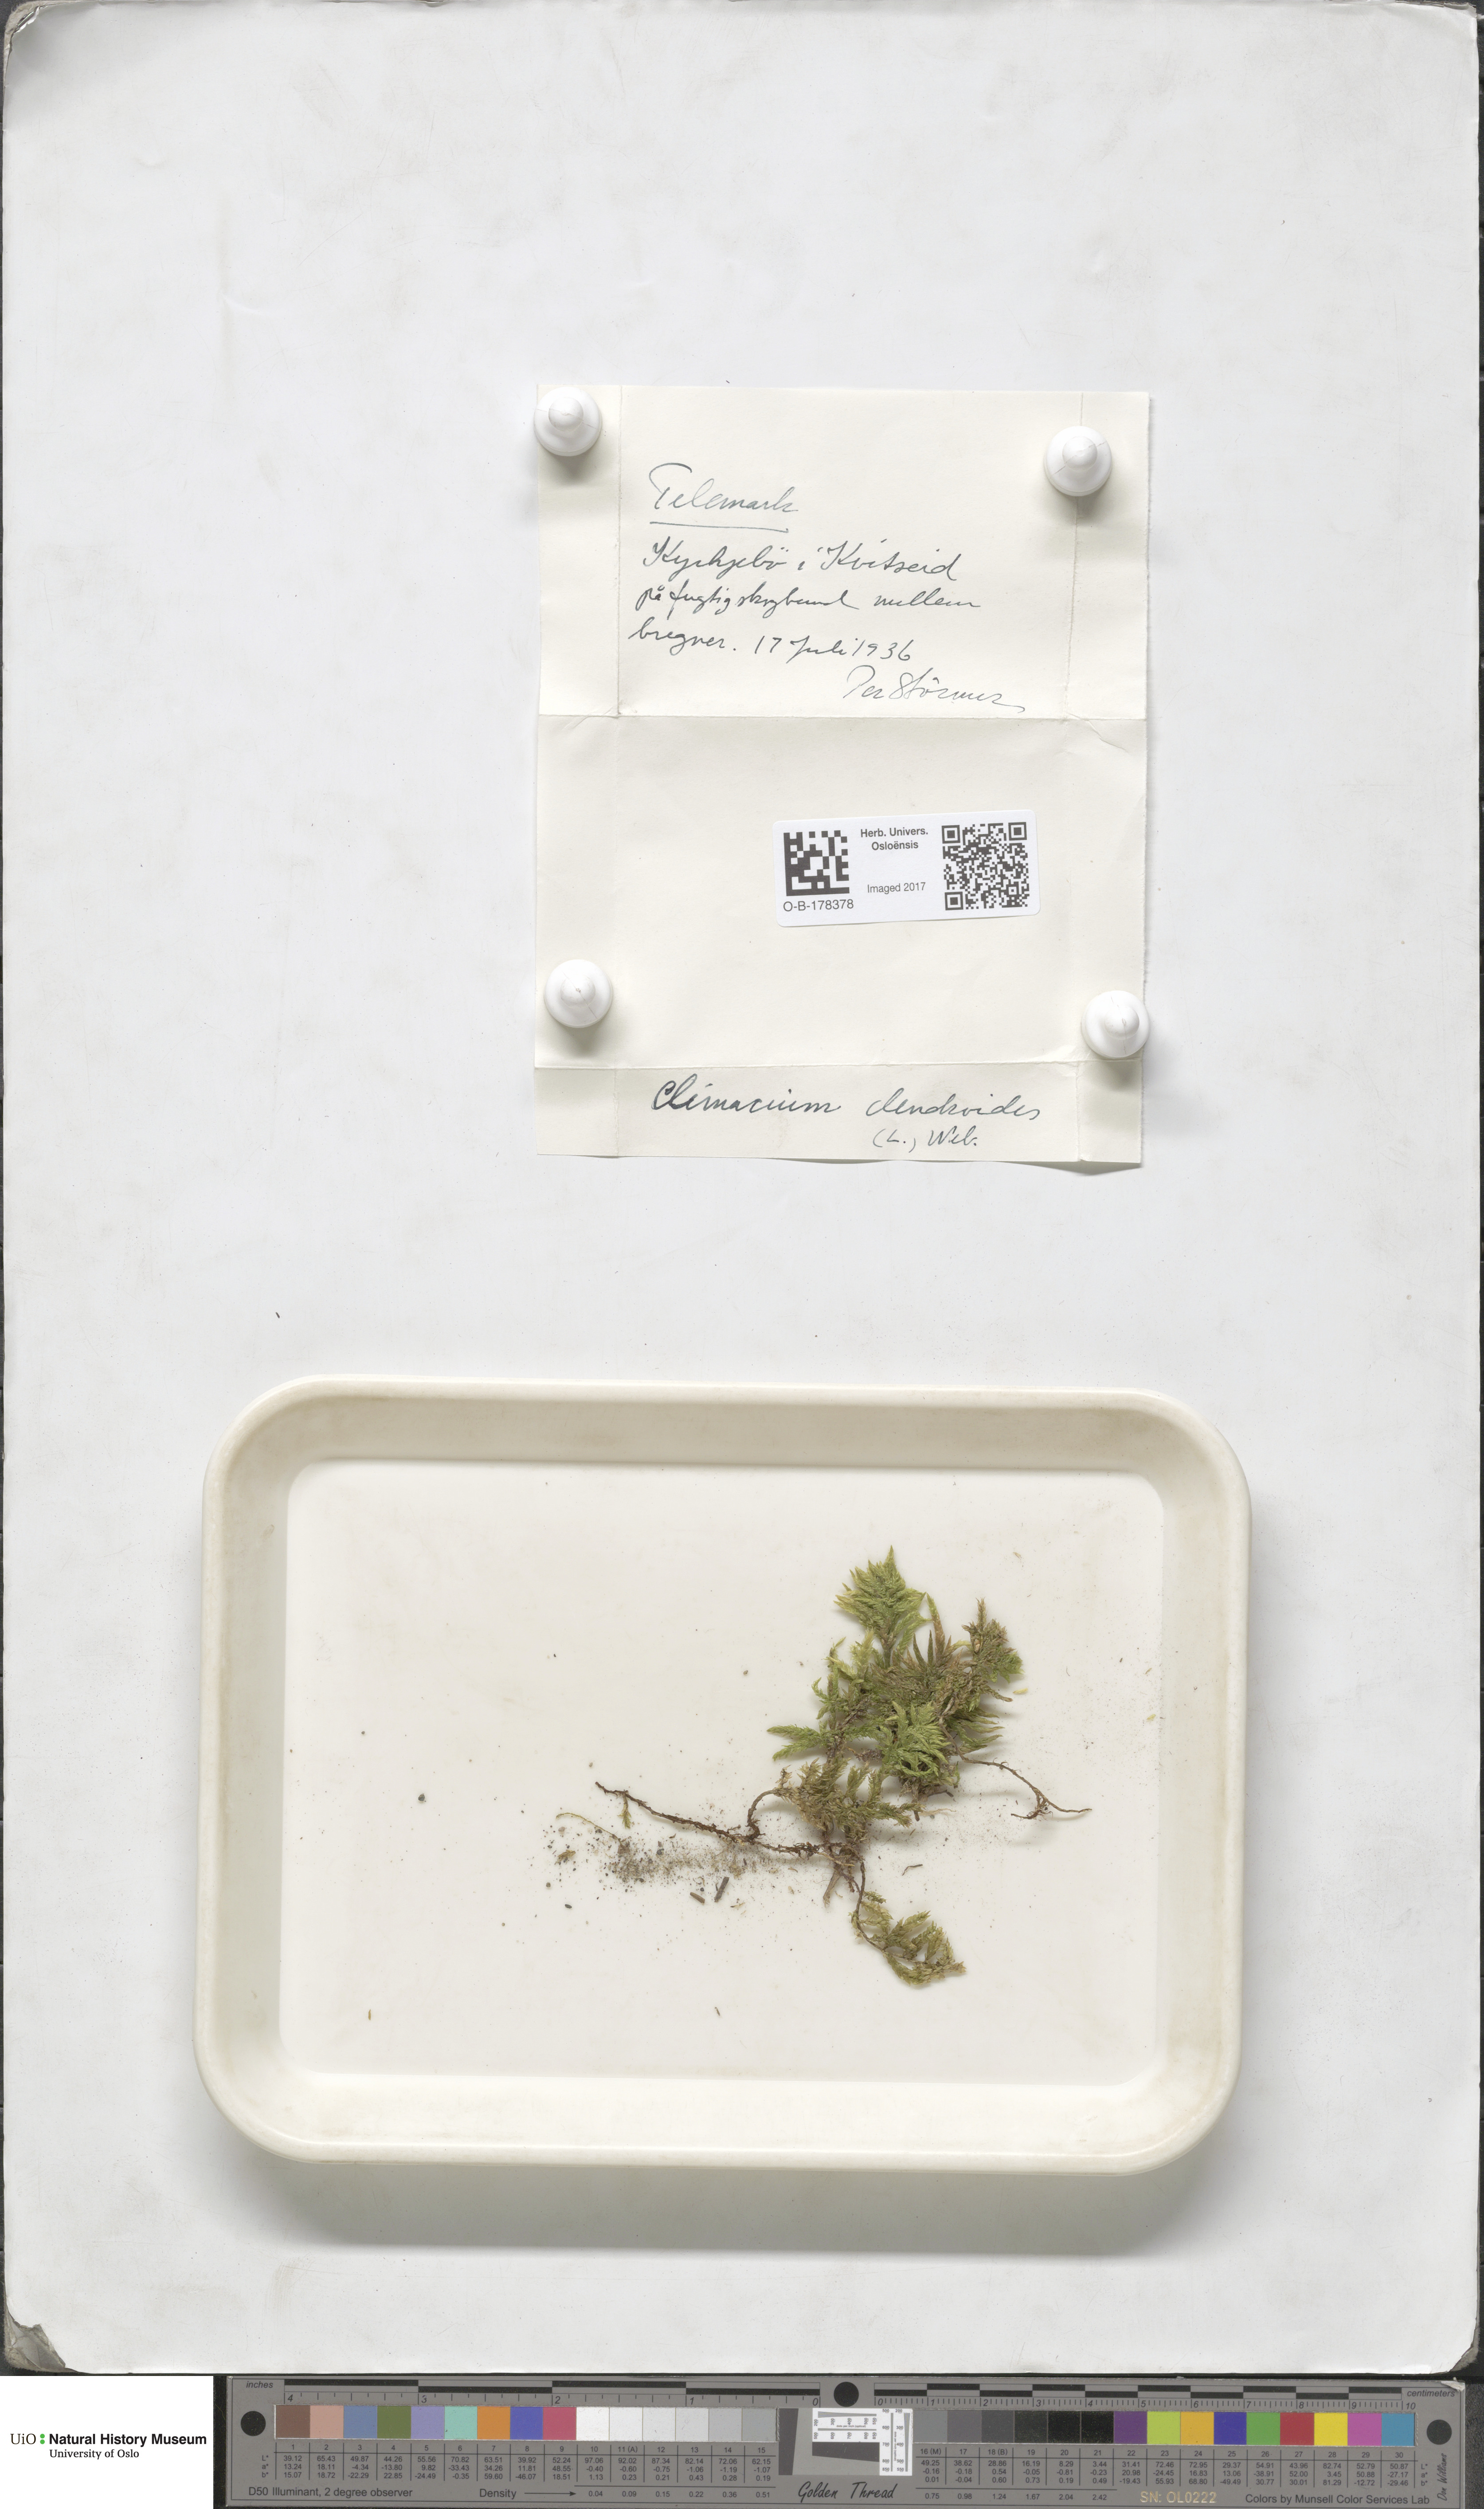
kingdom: Plantae
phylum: Bryophyta
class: Bryopsida
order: Hypnales
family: Climaciaceae
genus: Climacium
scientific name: Climacium dendroides
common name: Northern tree moss
